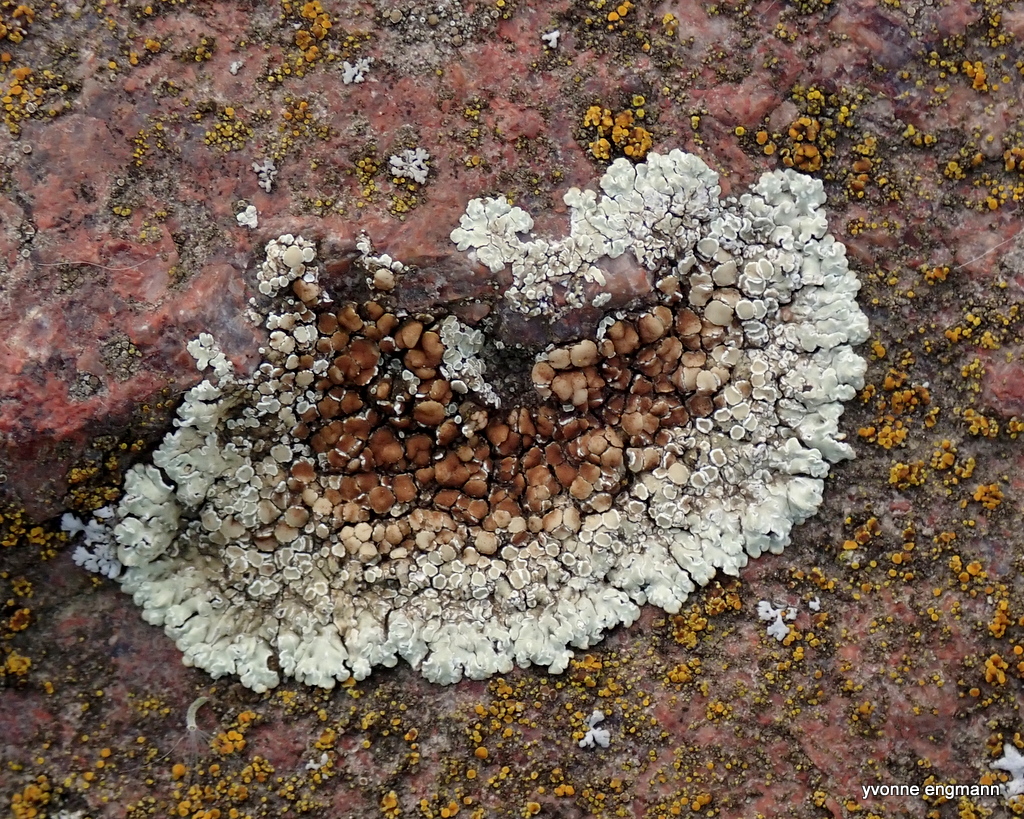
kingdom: Fungi
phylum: Ascomycota
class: Lecanoromycetes
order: Lecanorales
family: Lecanoraceae
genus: Protoparmeliopsis
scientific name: Protoparmeliopsis muralis
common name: randfliget kantskivelav
